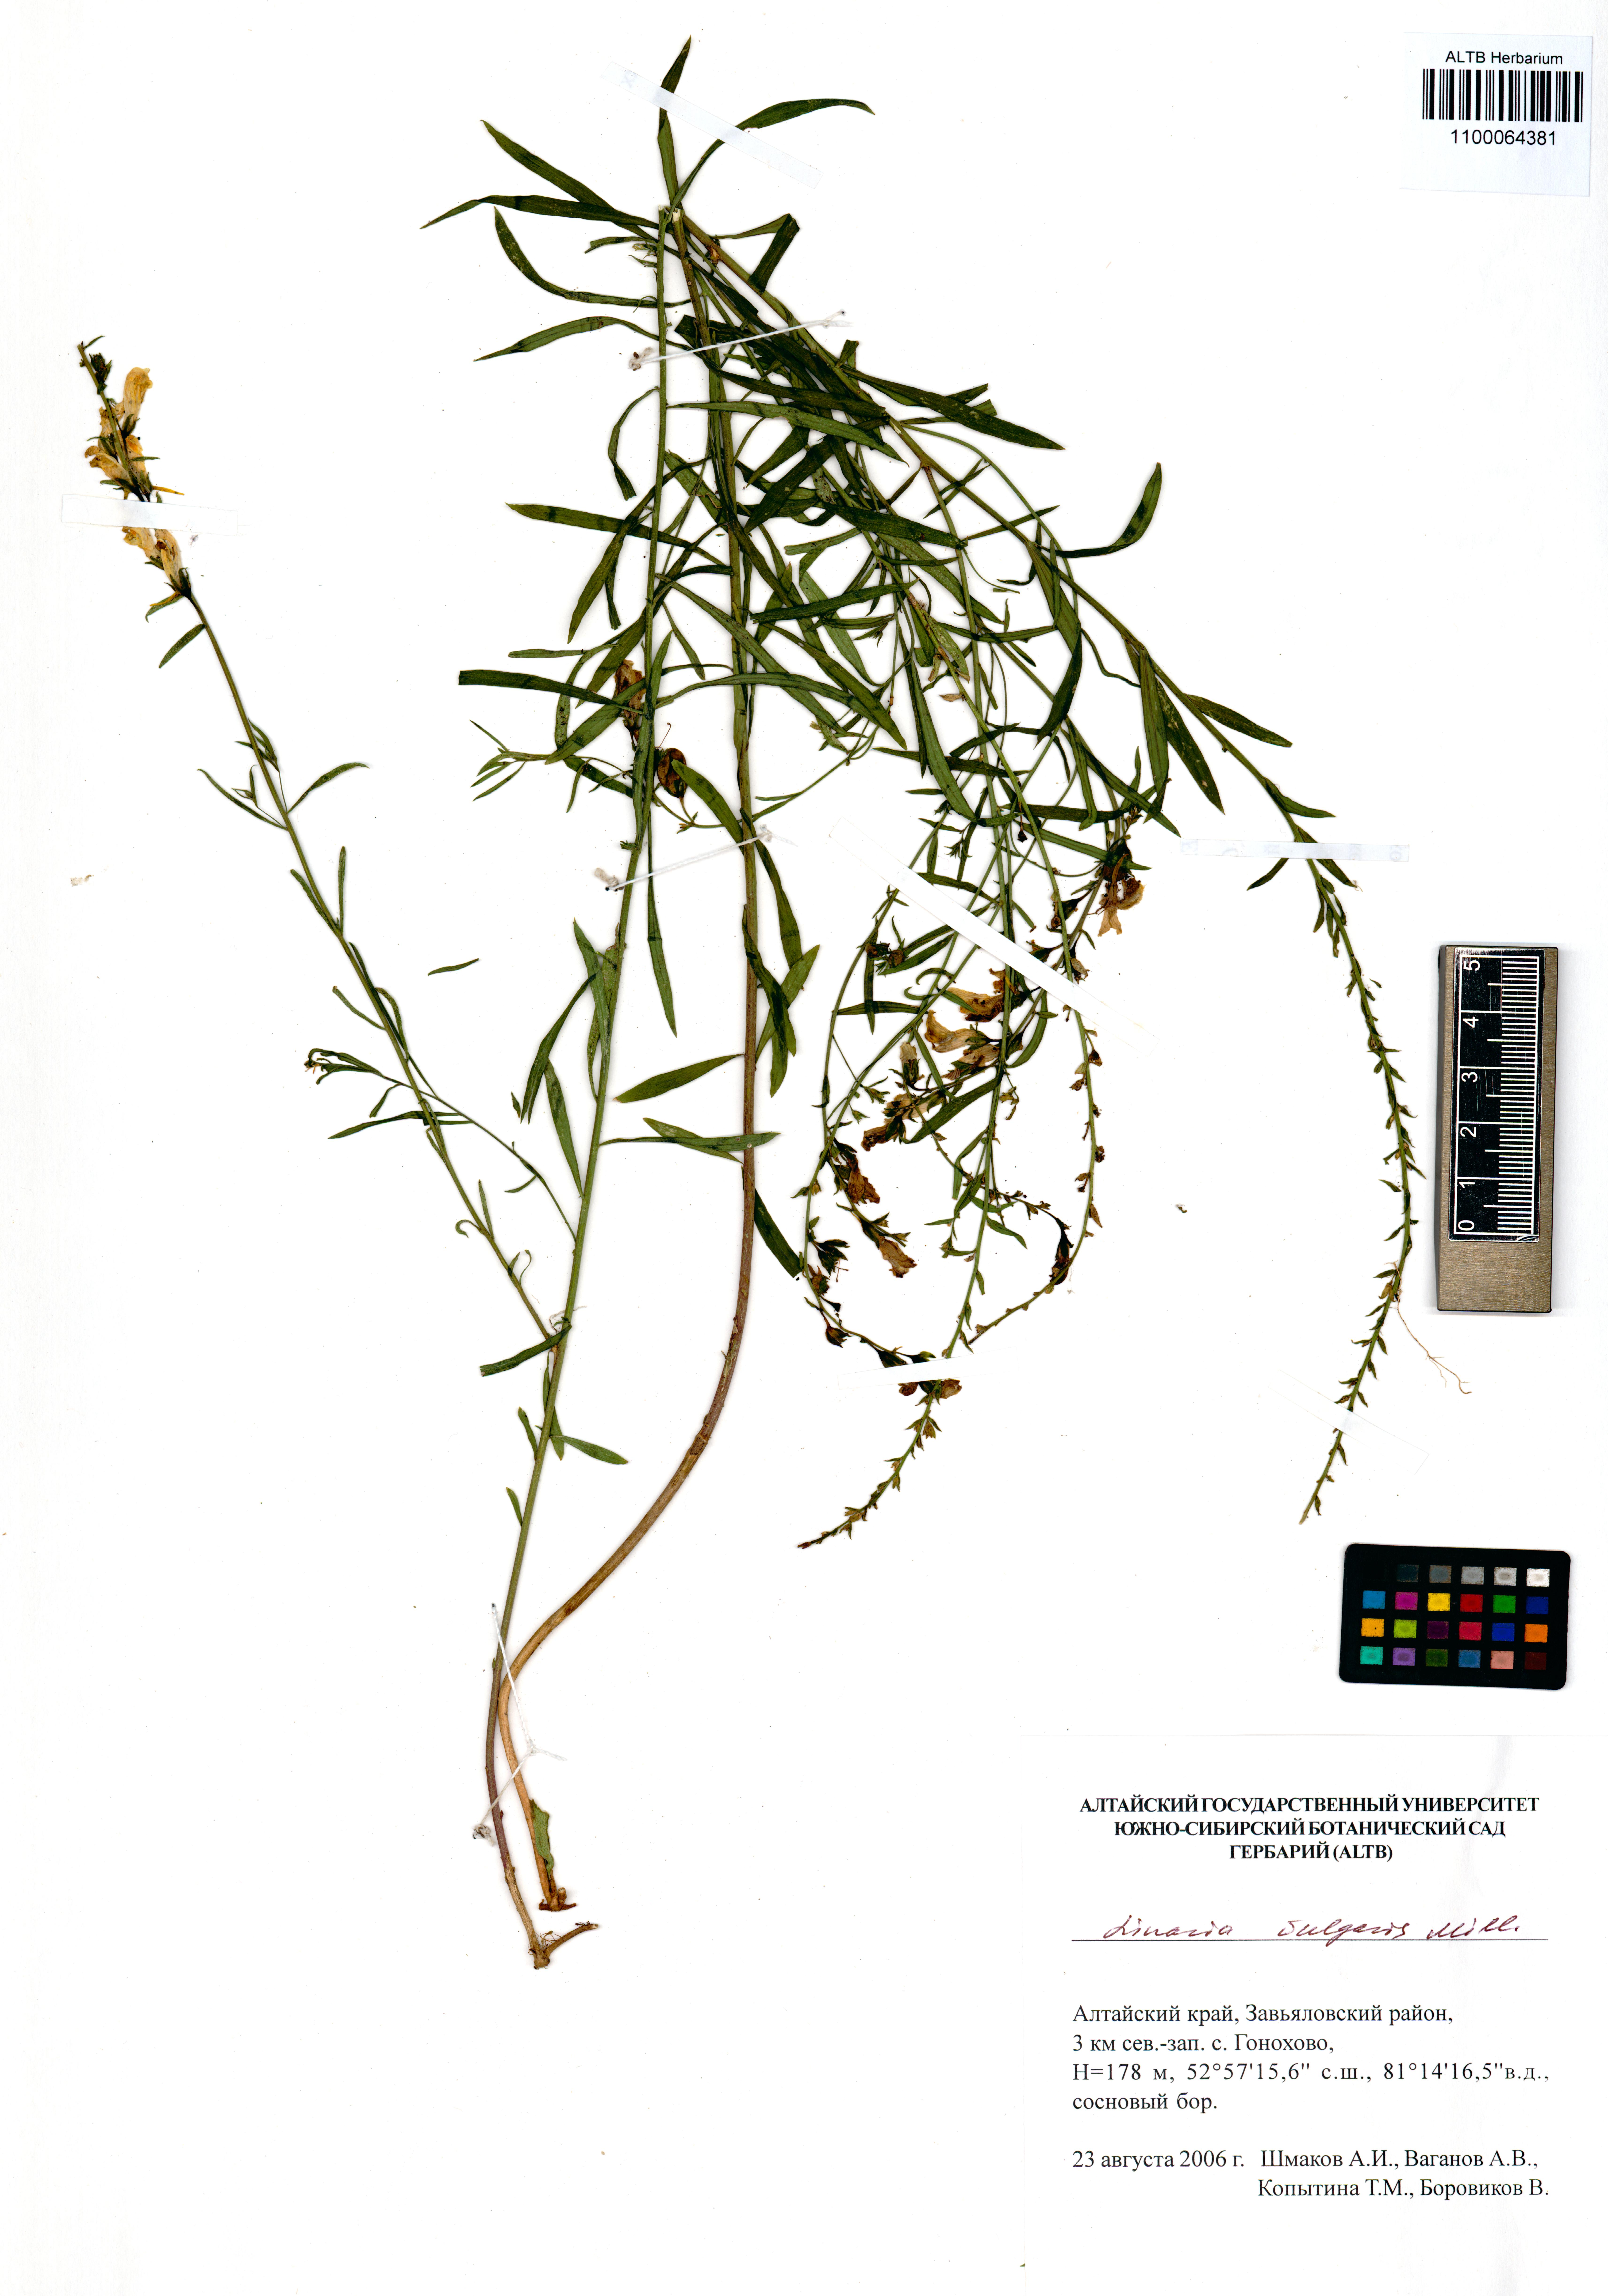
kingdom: Plantae
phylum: Tracheophyta
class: Magnoliopsida
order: Lamiales
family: Plantaginaceae
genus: Linaria
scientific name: Linaria vulgaris
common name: Butter and eggs
